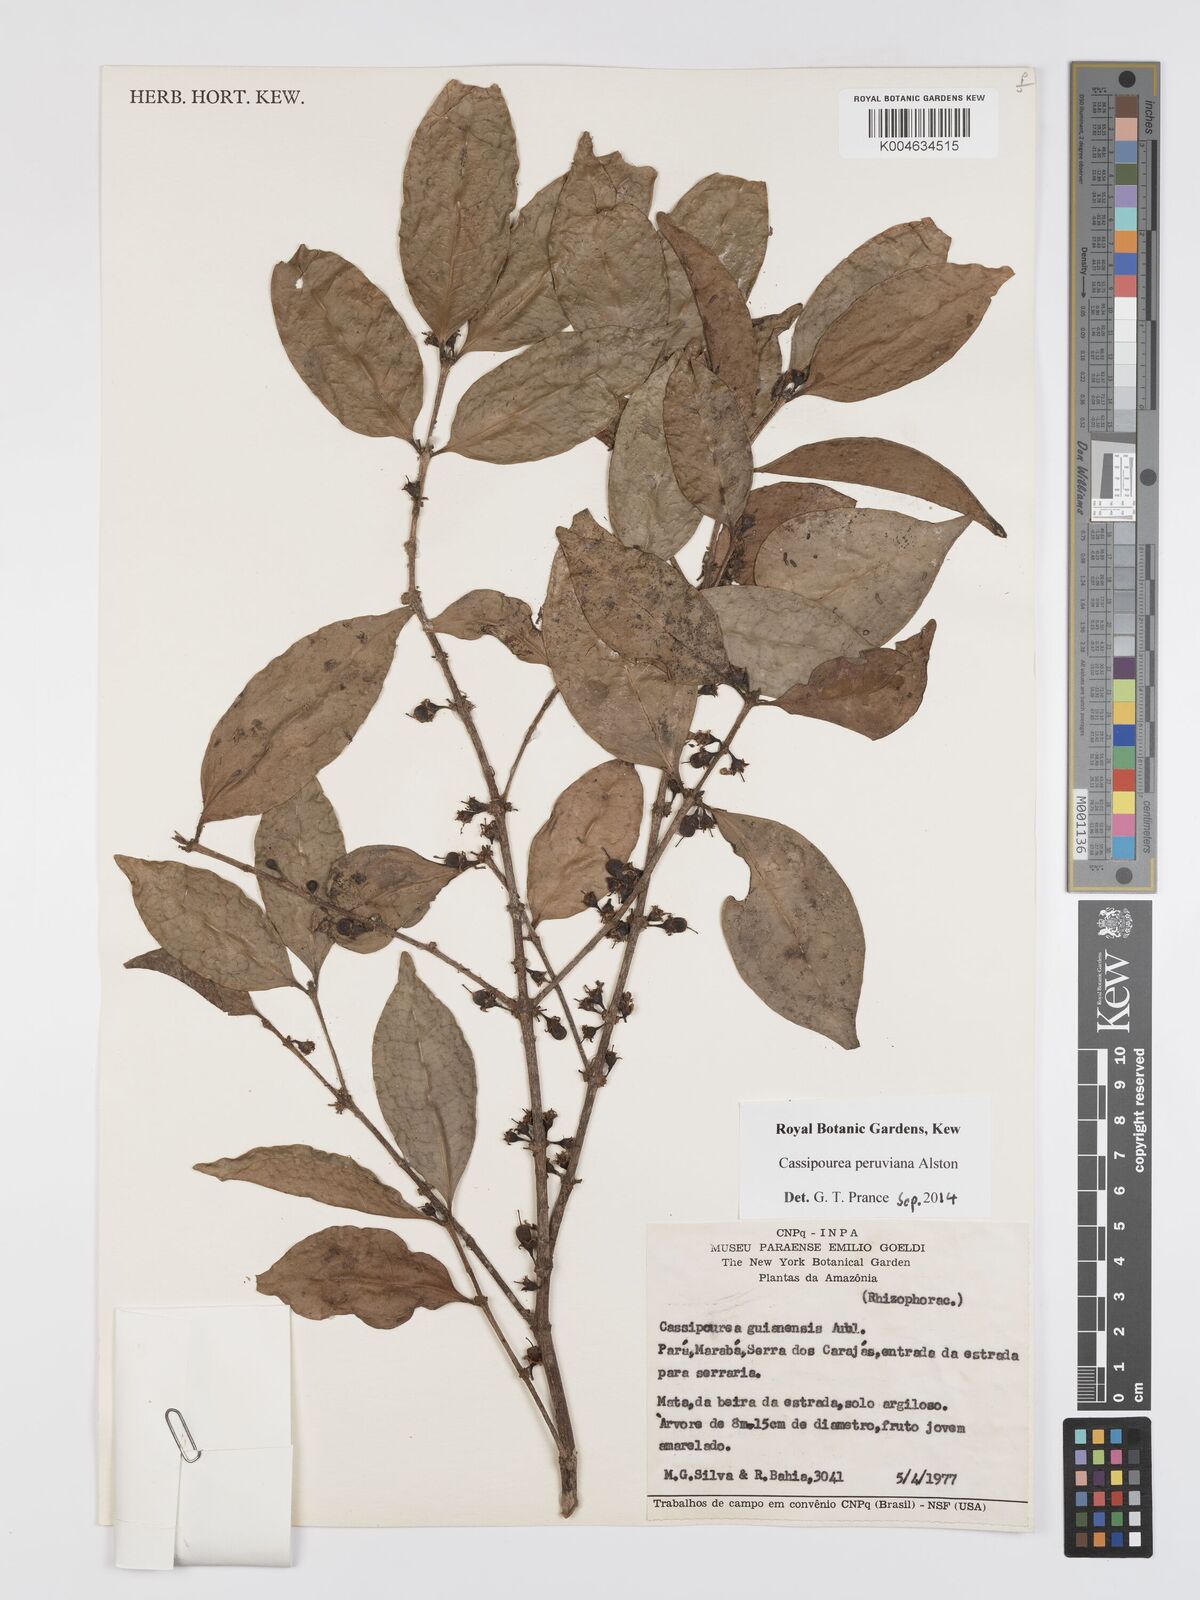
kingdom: Plantae
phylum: Tracheophyta
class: Magnoliopsida
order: Malpighiales
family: Rhizophoraceae
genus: Cassipourea
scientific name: Cassipourea peruviana
